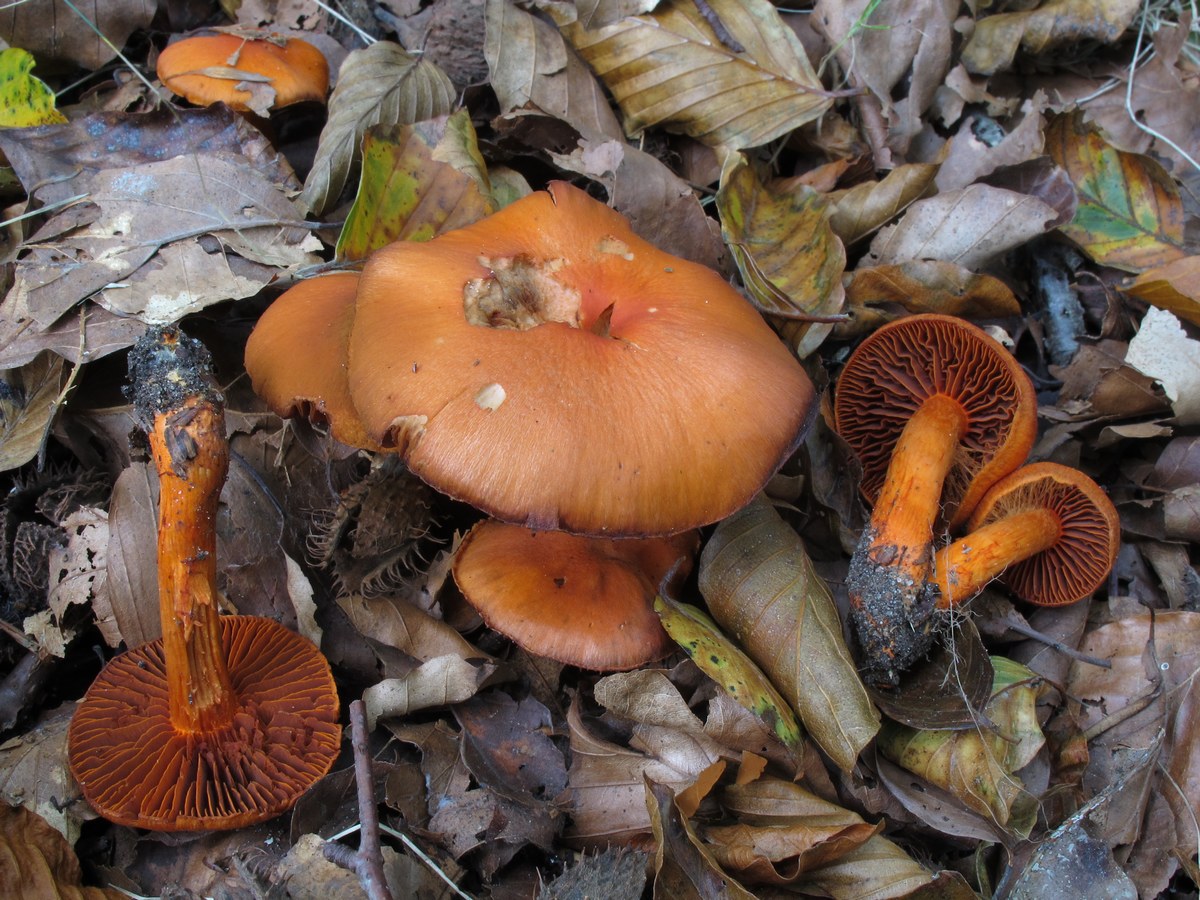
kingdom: Fungi
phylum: Basidiomycota
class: Agaricomycetes
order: Agaricales
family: Cortinariaceae
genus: Cortinarius
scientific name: Cortinarius cinnabarinus
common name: cinnober-slørhat
